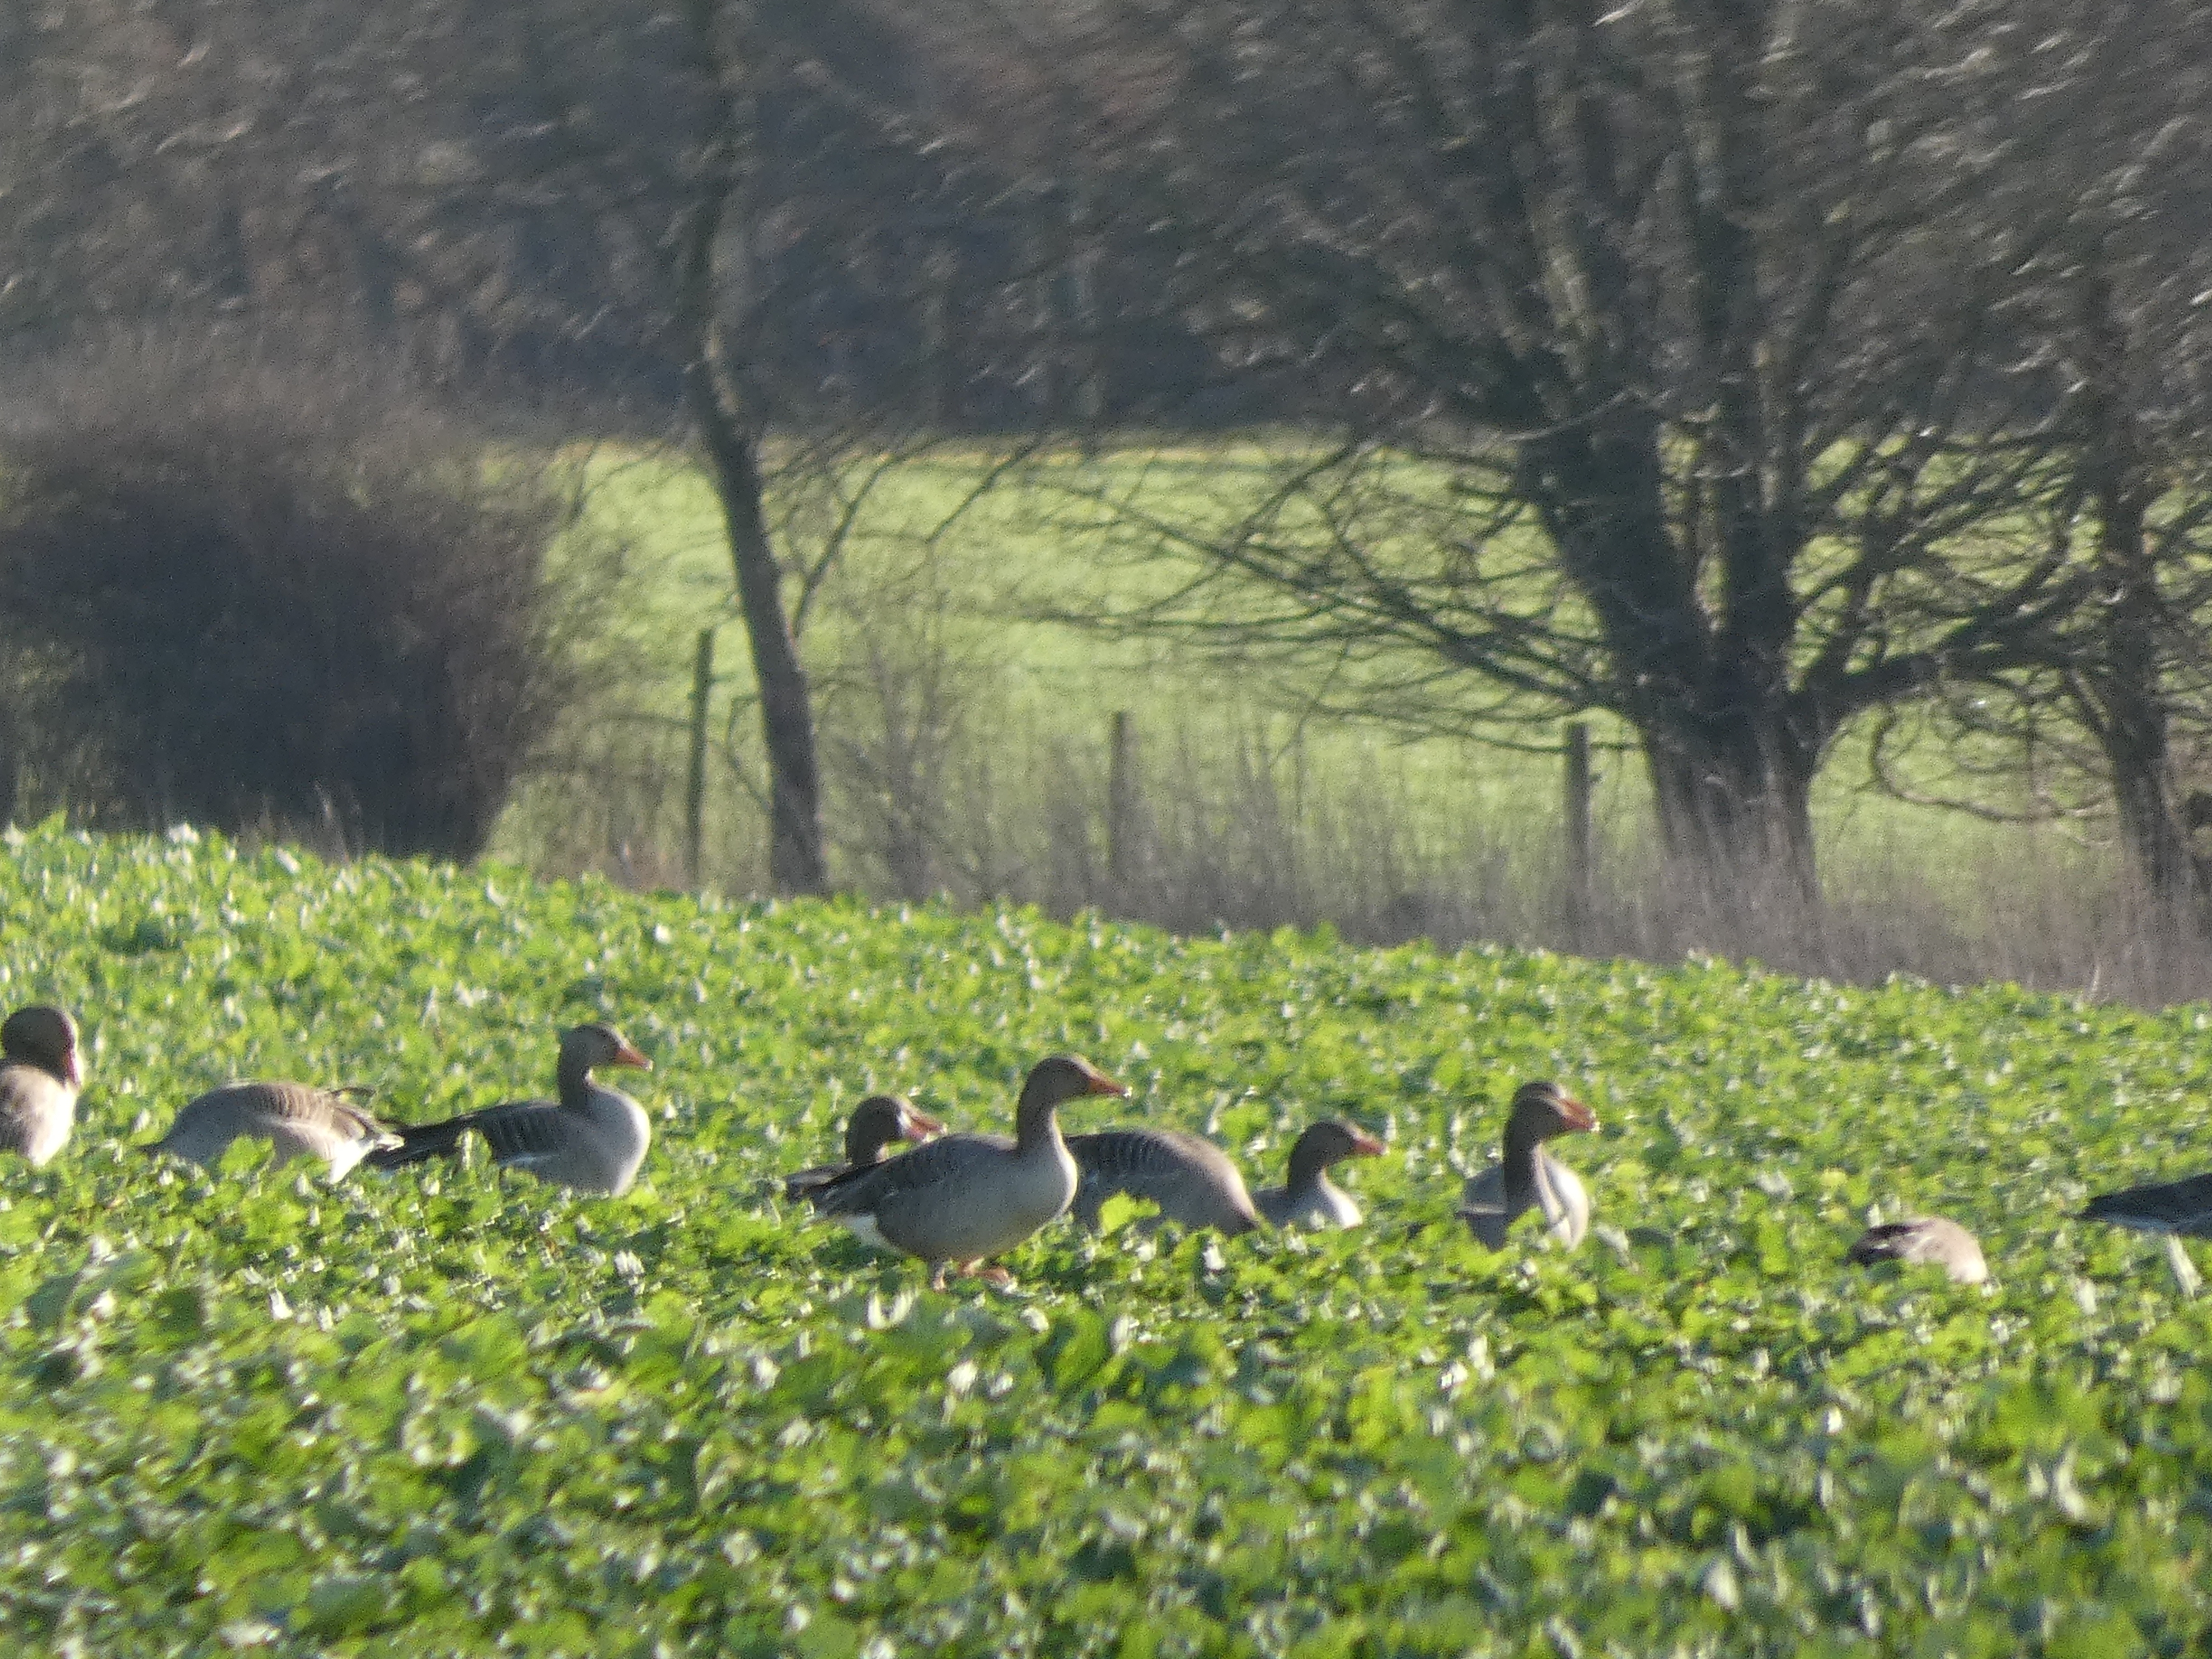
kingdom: Animalia
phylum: Chordata
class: Aves
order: Anseriformes
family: Anatidae
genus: Anser
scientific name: Anser anser
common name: Grågås
